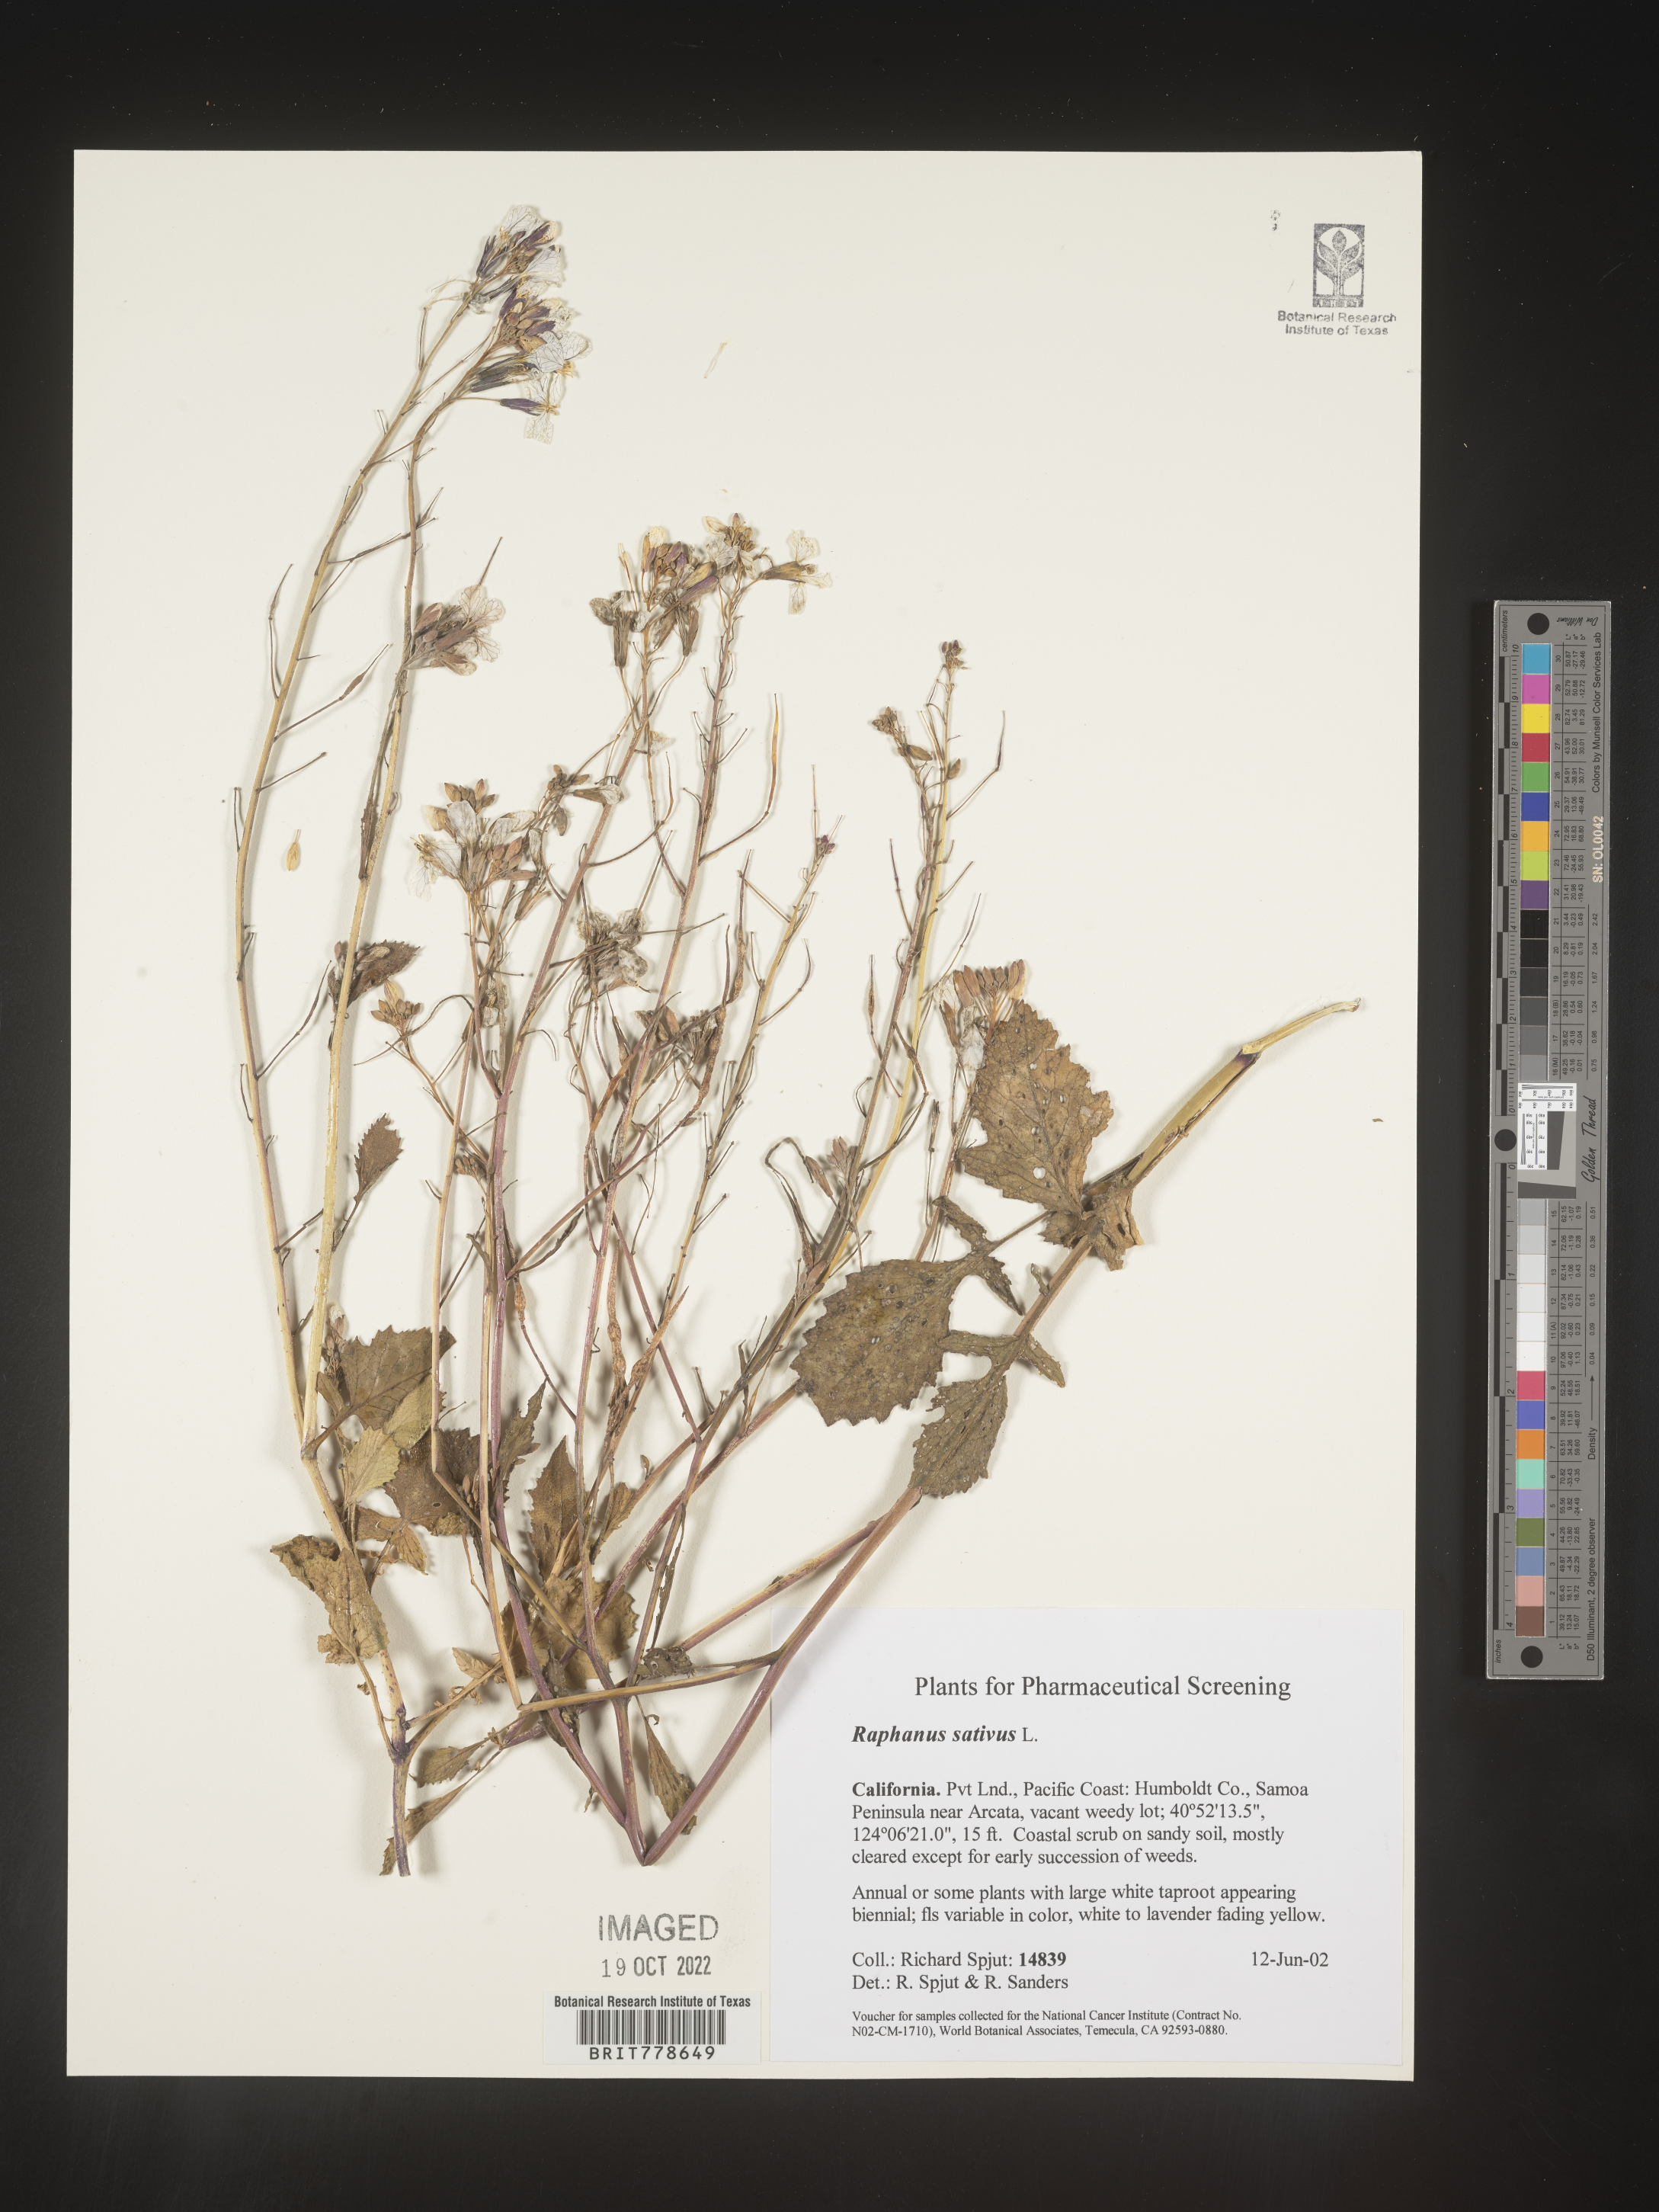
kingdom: Plantae
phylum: Tracheophyta
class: Magnoliopsida
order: Brassicales
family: Brassicaceae
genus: Raphanus
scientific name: Raphanus sativus
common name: Cultivated radish
